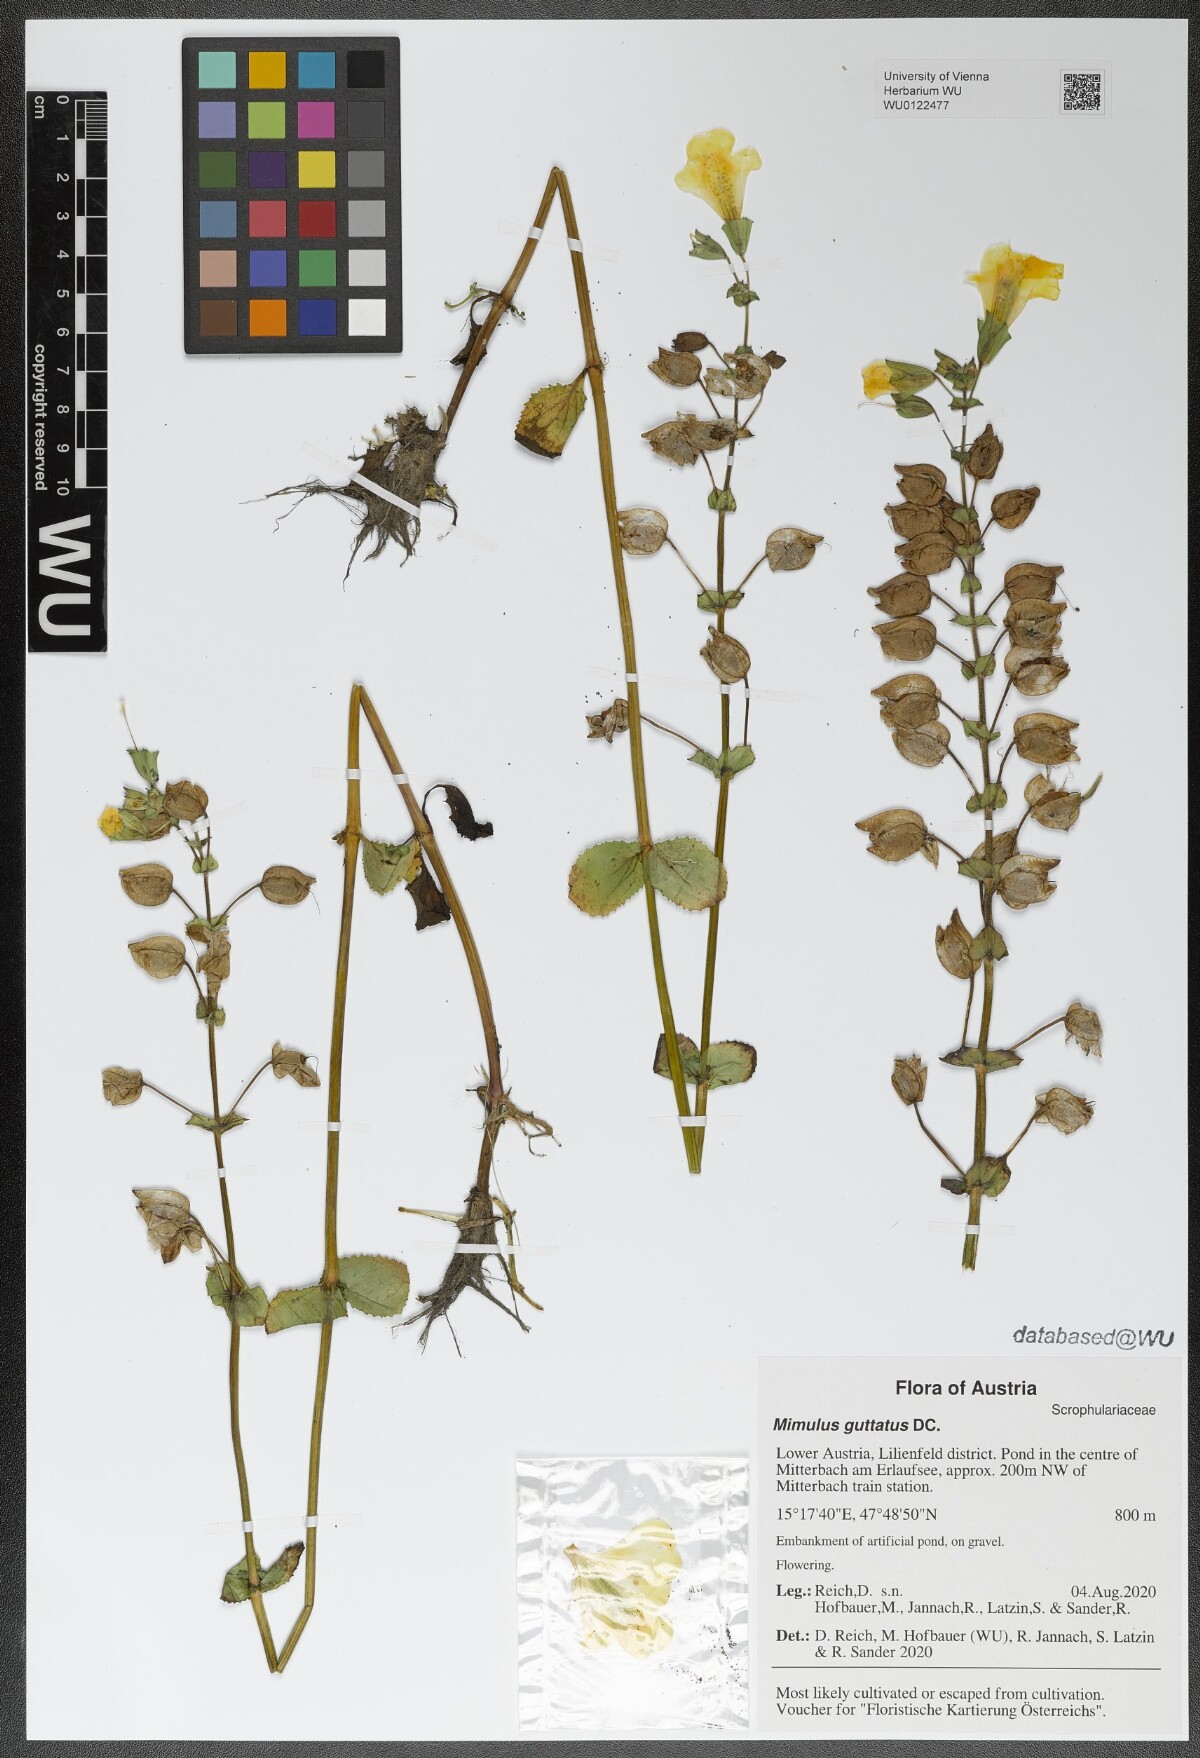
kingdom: Plantae
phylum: Tracheophyta
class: Magnoliopsida
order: Lamiales
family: Phrymaceae
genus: Erythranthe
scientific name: Erythranthe guttata
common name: Monkeyflower
